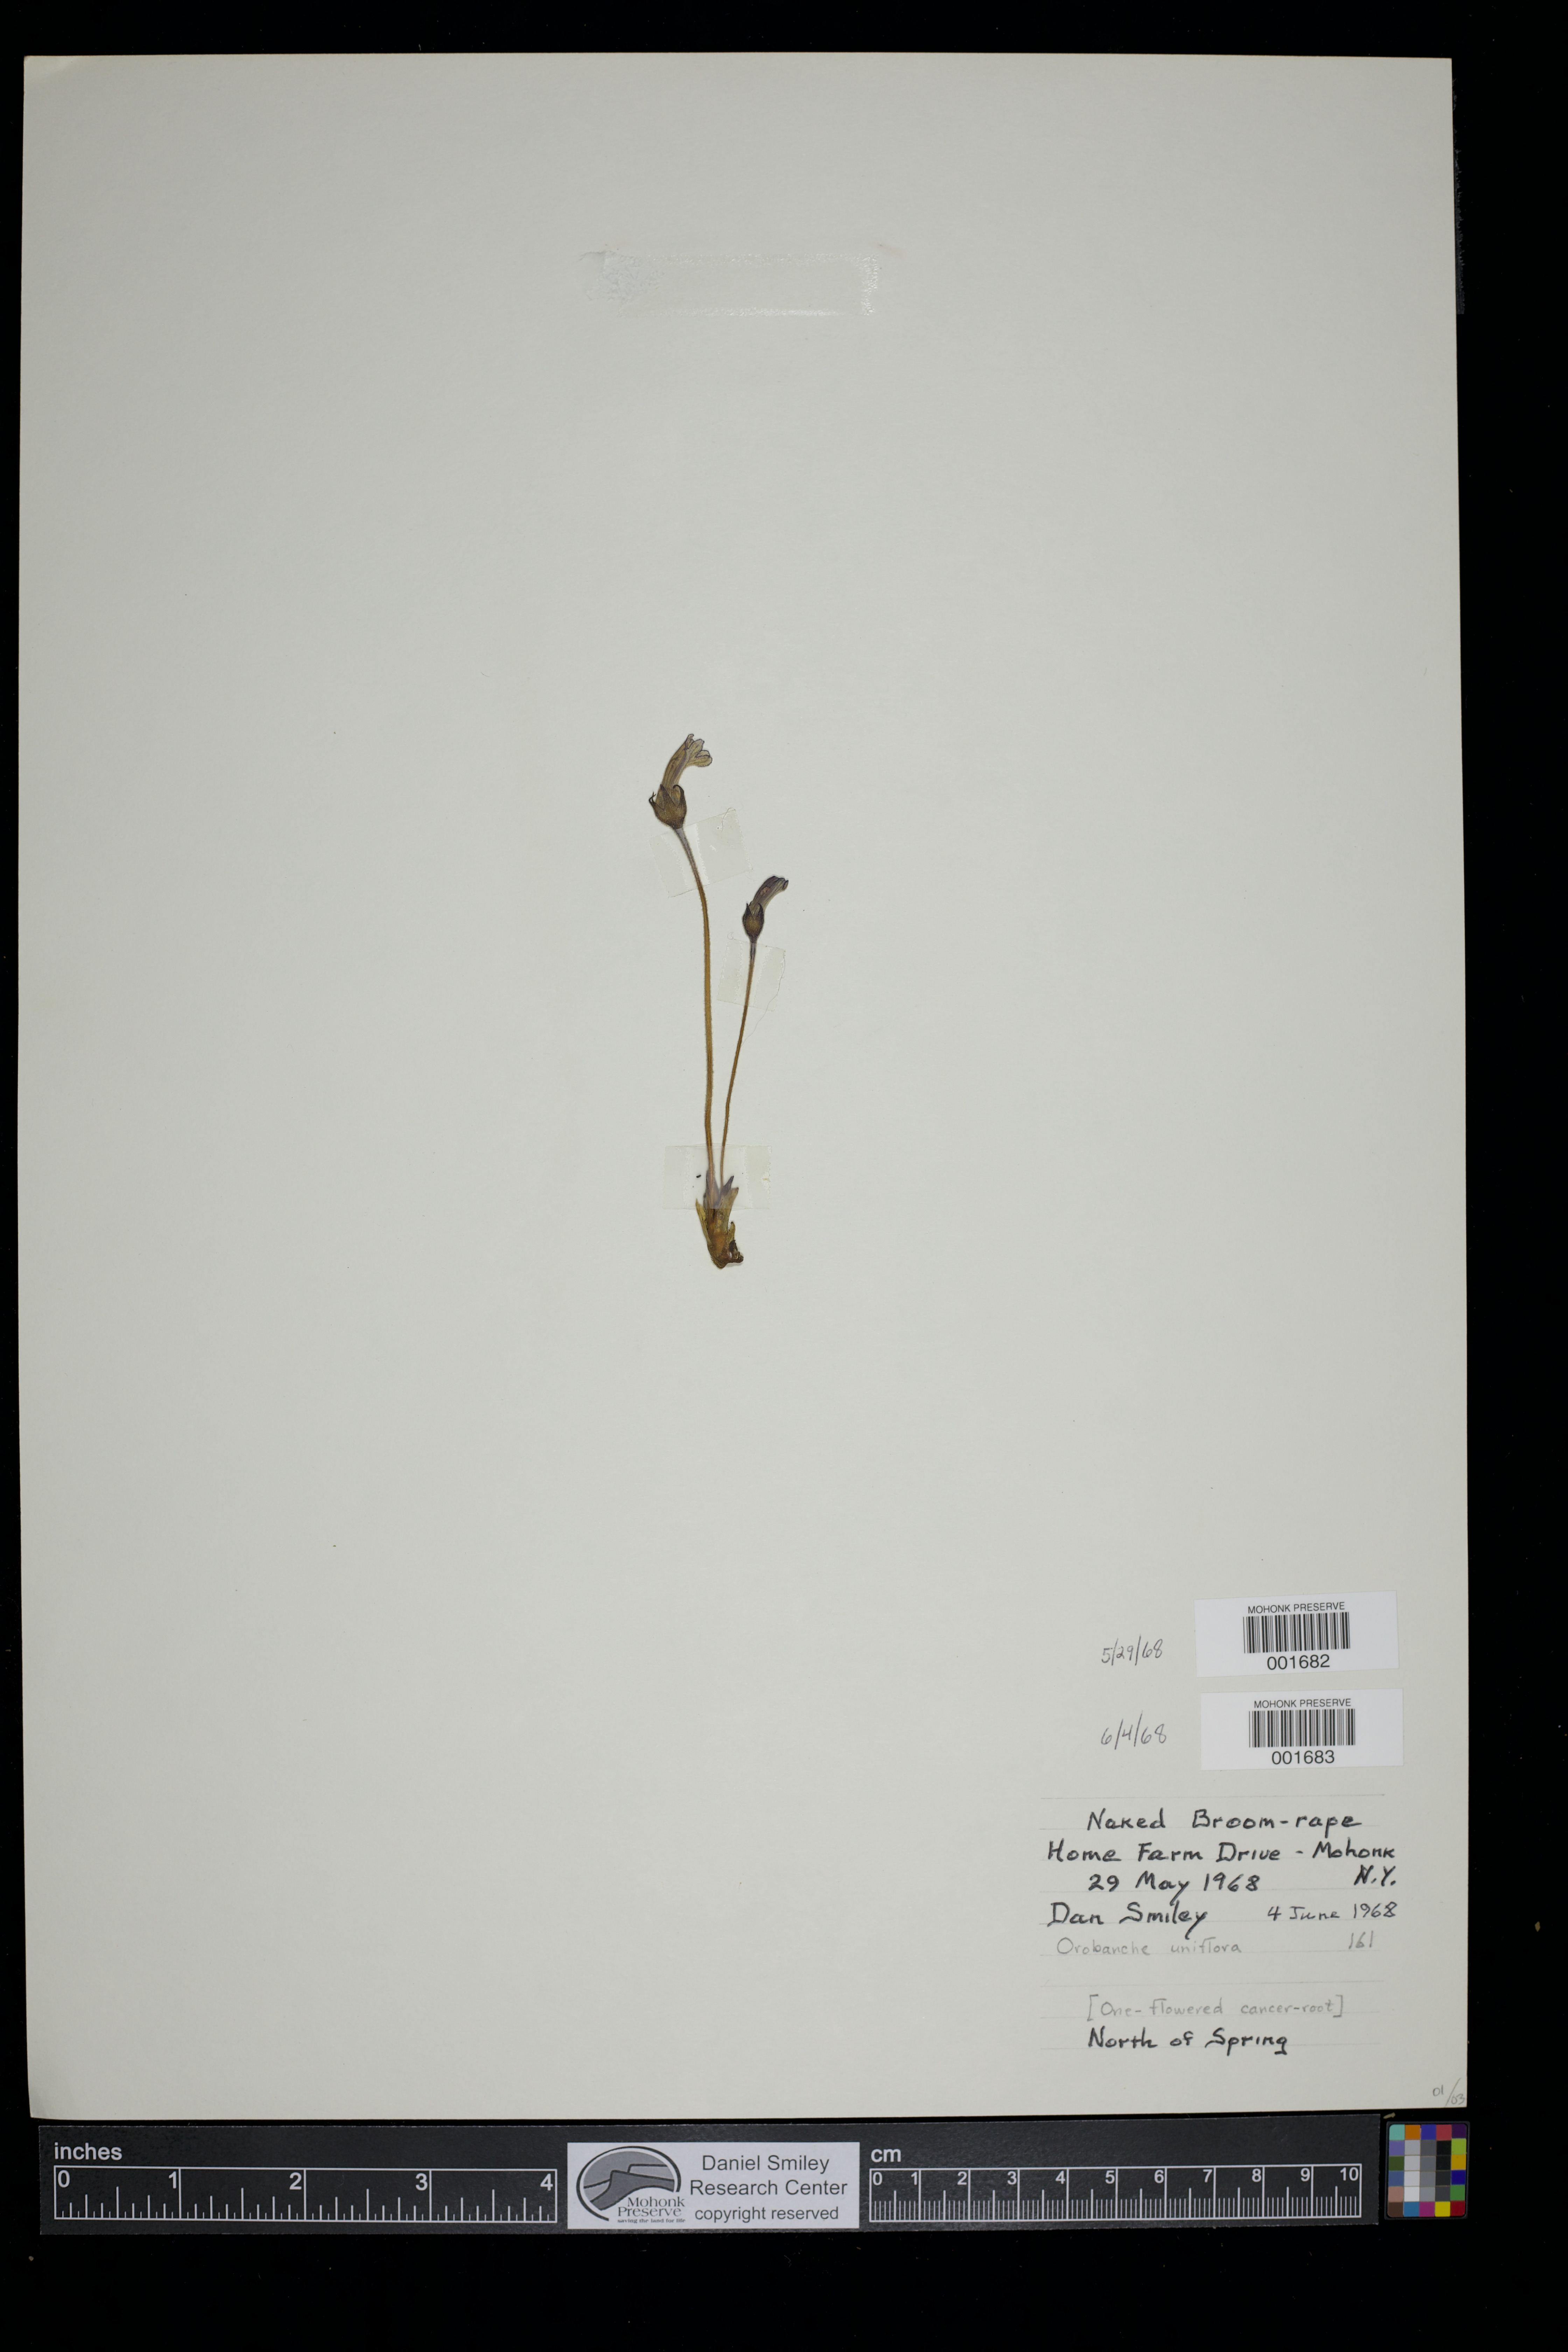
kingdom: Plantae
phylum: Tracheophyta
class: Magnoliopsida
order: Lamiales
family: Orobanchaceae
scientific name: Orobanchaceae
